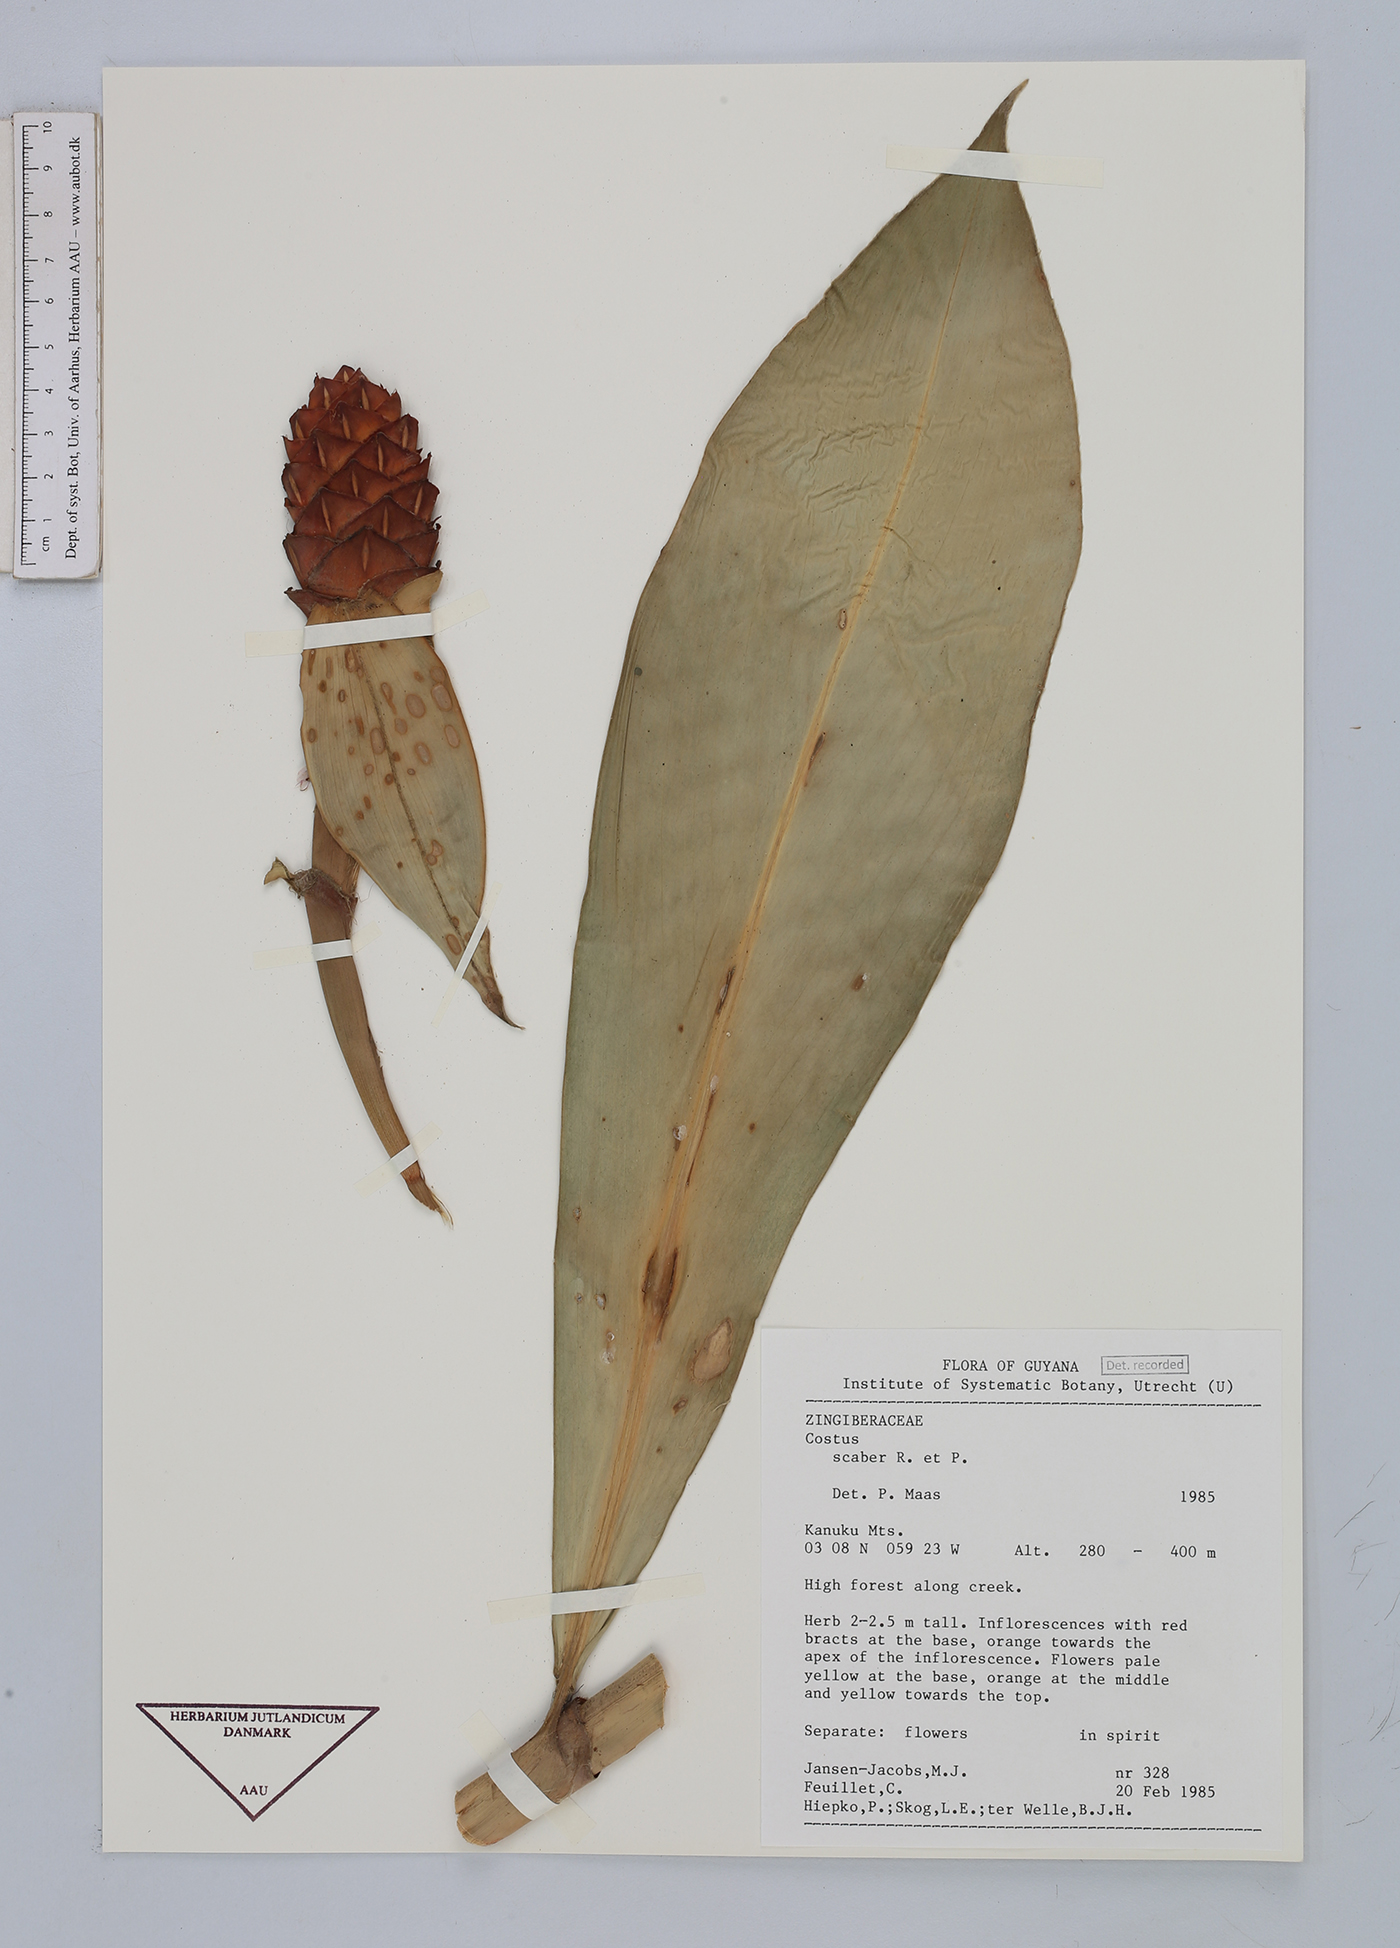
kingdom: Plantae
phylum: Tracheophyta
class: Liliopsida
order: Zingiberales
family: Costaceae
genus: Costus
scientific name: Costus scaber
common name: Spiral head ginger
